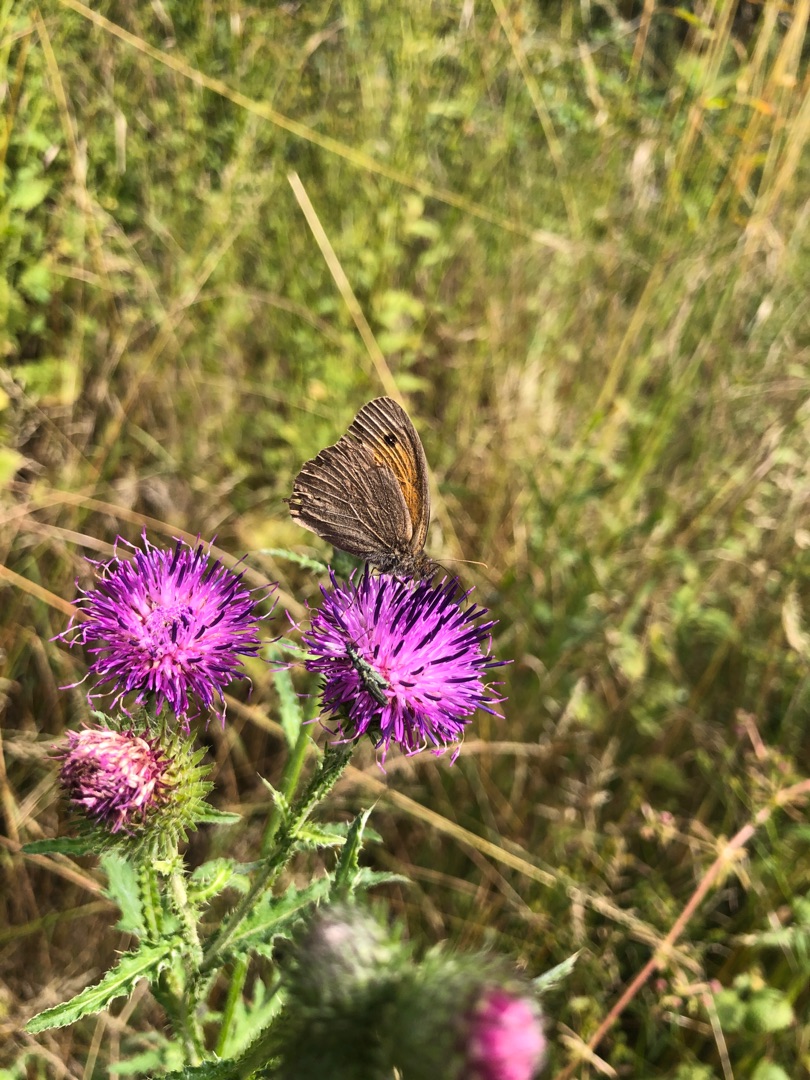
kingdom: Animalia
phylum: Arthropoda
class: Insecta
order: Lepidoptera
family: Nymphalidae
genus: Maniola
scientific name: Maniola jurtina
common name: Græsrandøje
